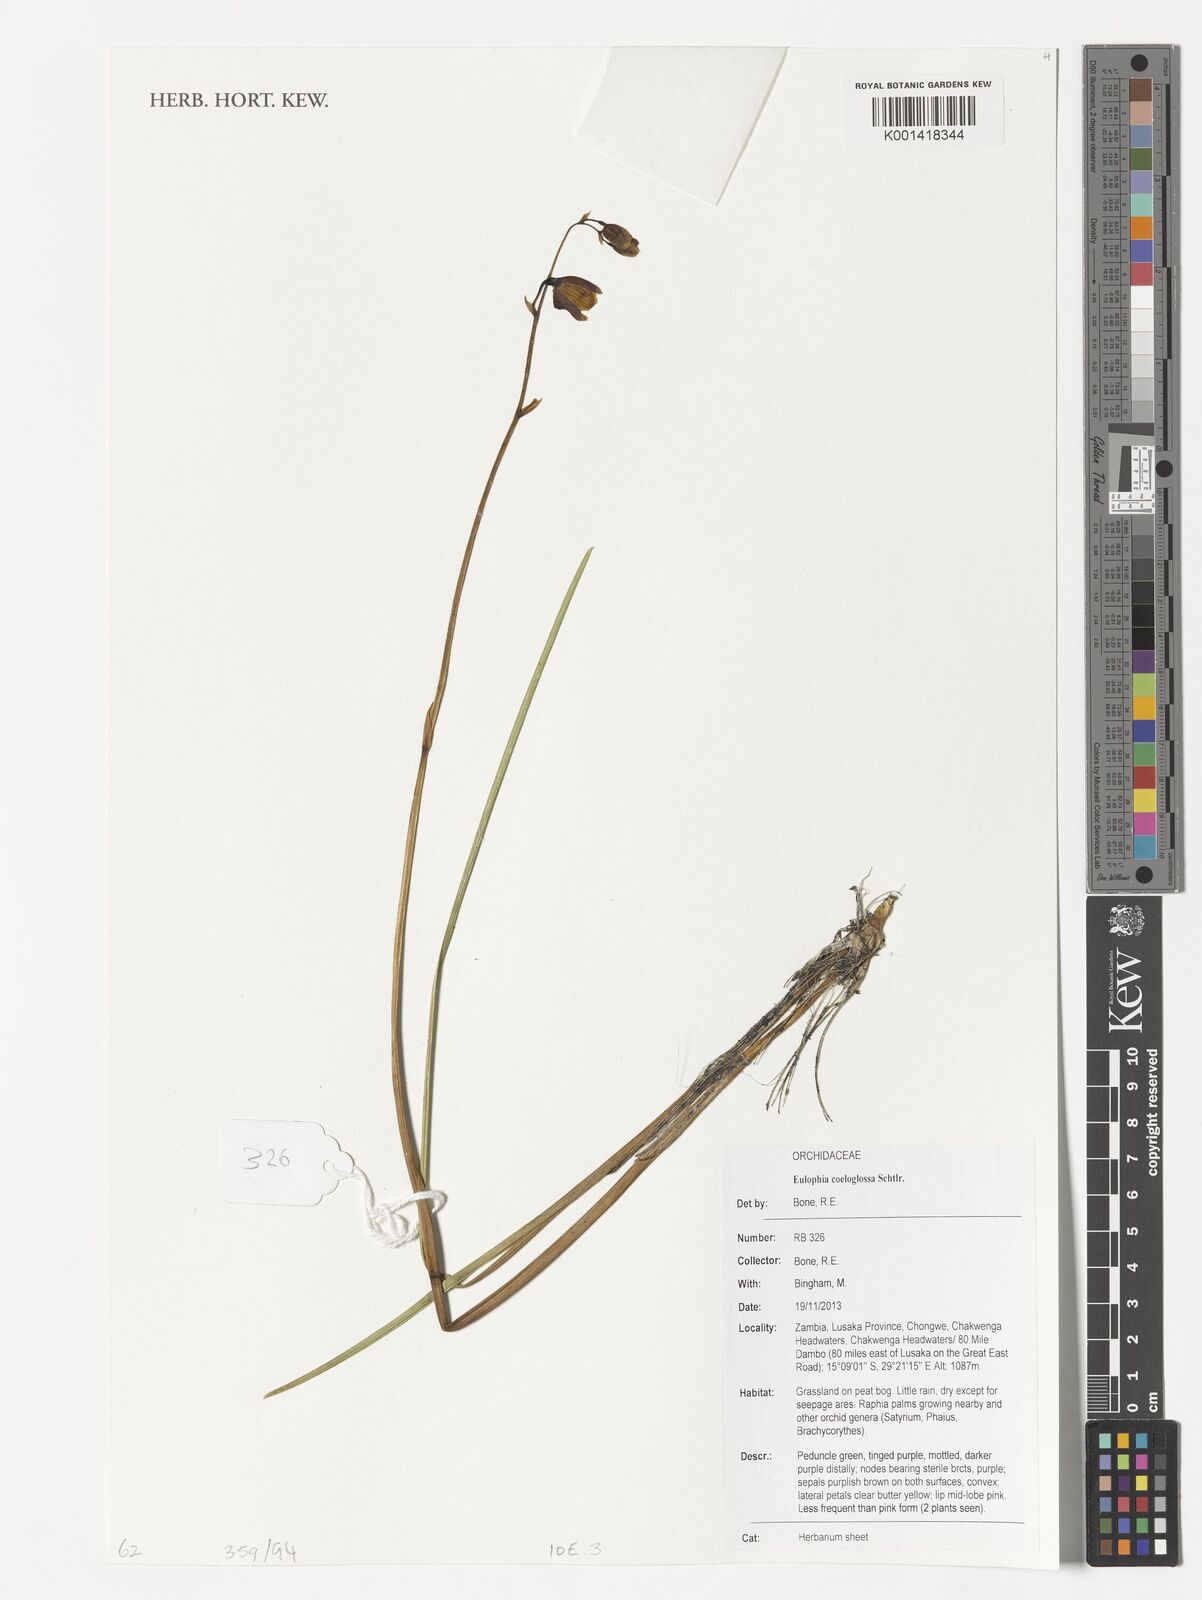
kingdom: Plantae
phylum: Tracheophyta
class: Liliopsida
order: Asparagales
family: Orchidaceae
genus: Eulophia
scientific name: Eulophia coeloglossa
